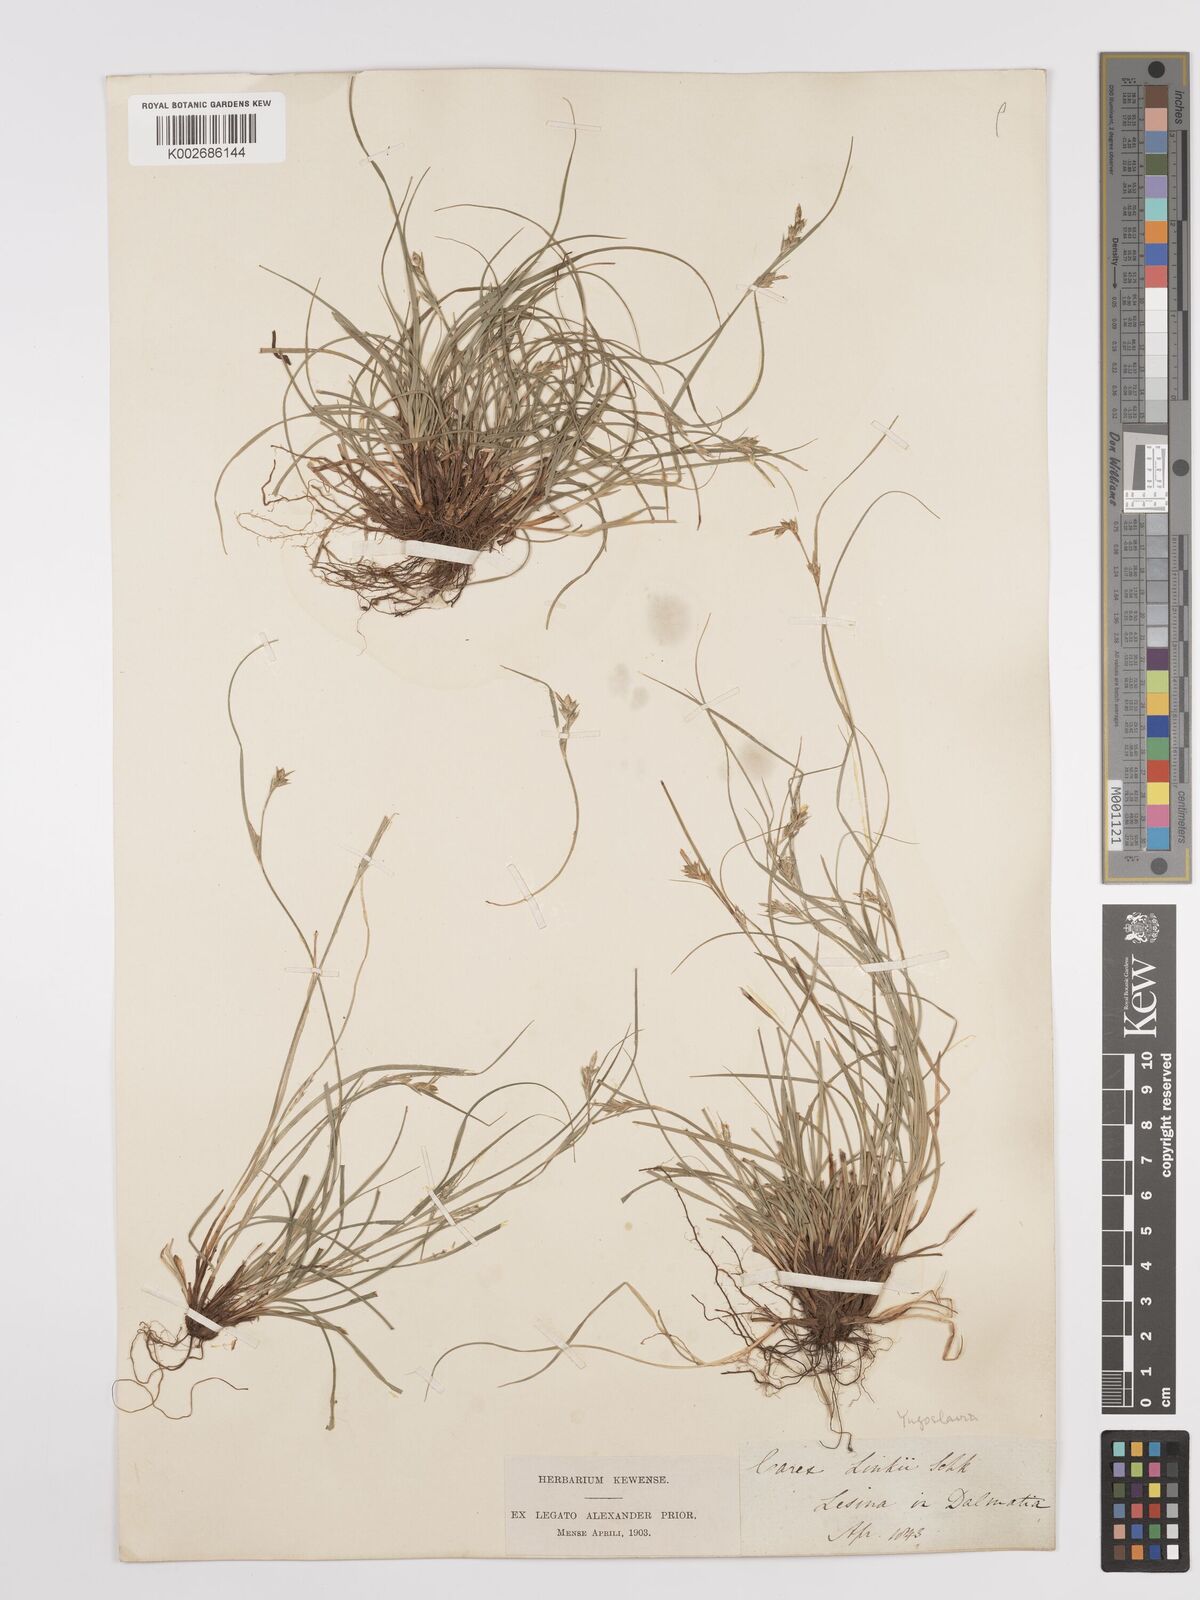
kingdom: Plantae
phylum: Tracheophyta
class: Liliopsida
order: Poales
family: Cyperaceae
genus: Carex
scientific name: Carex distachya
